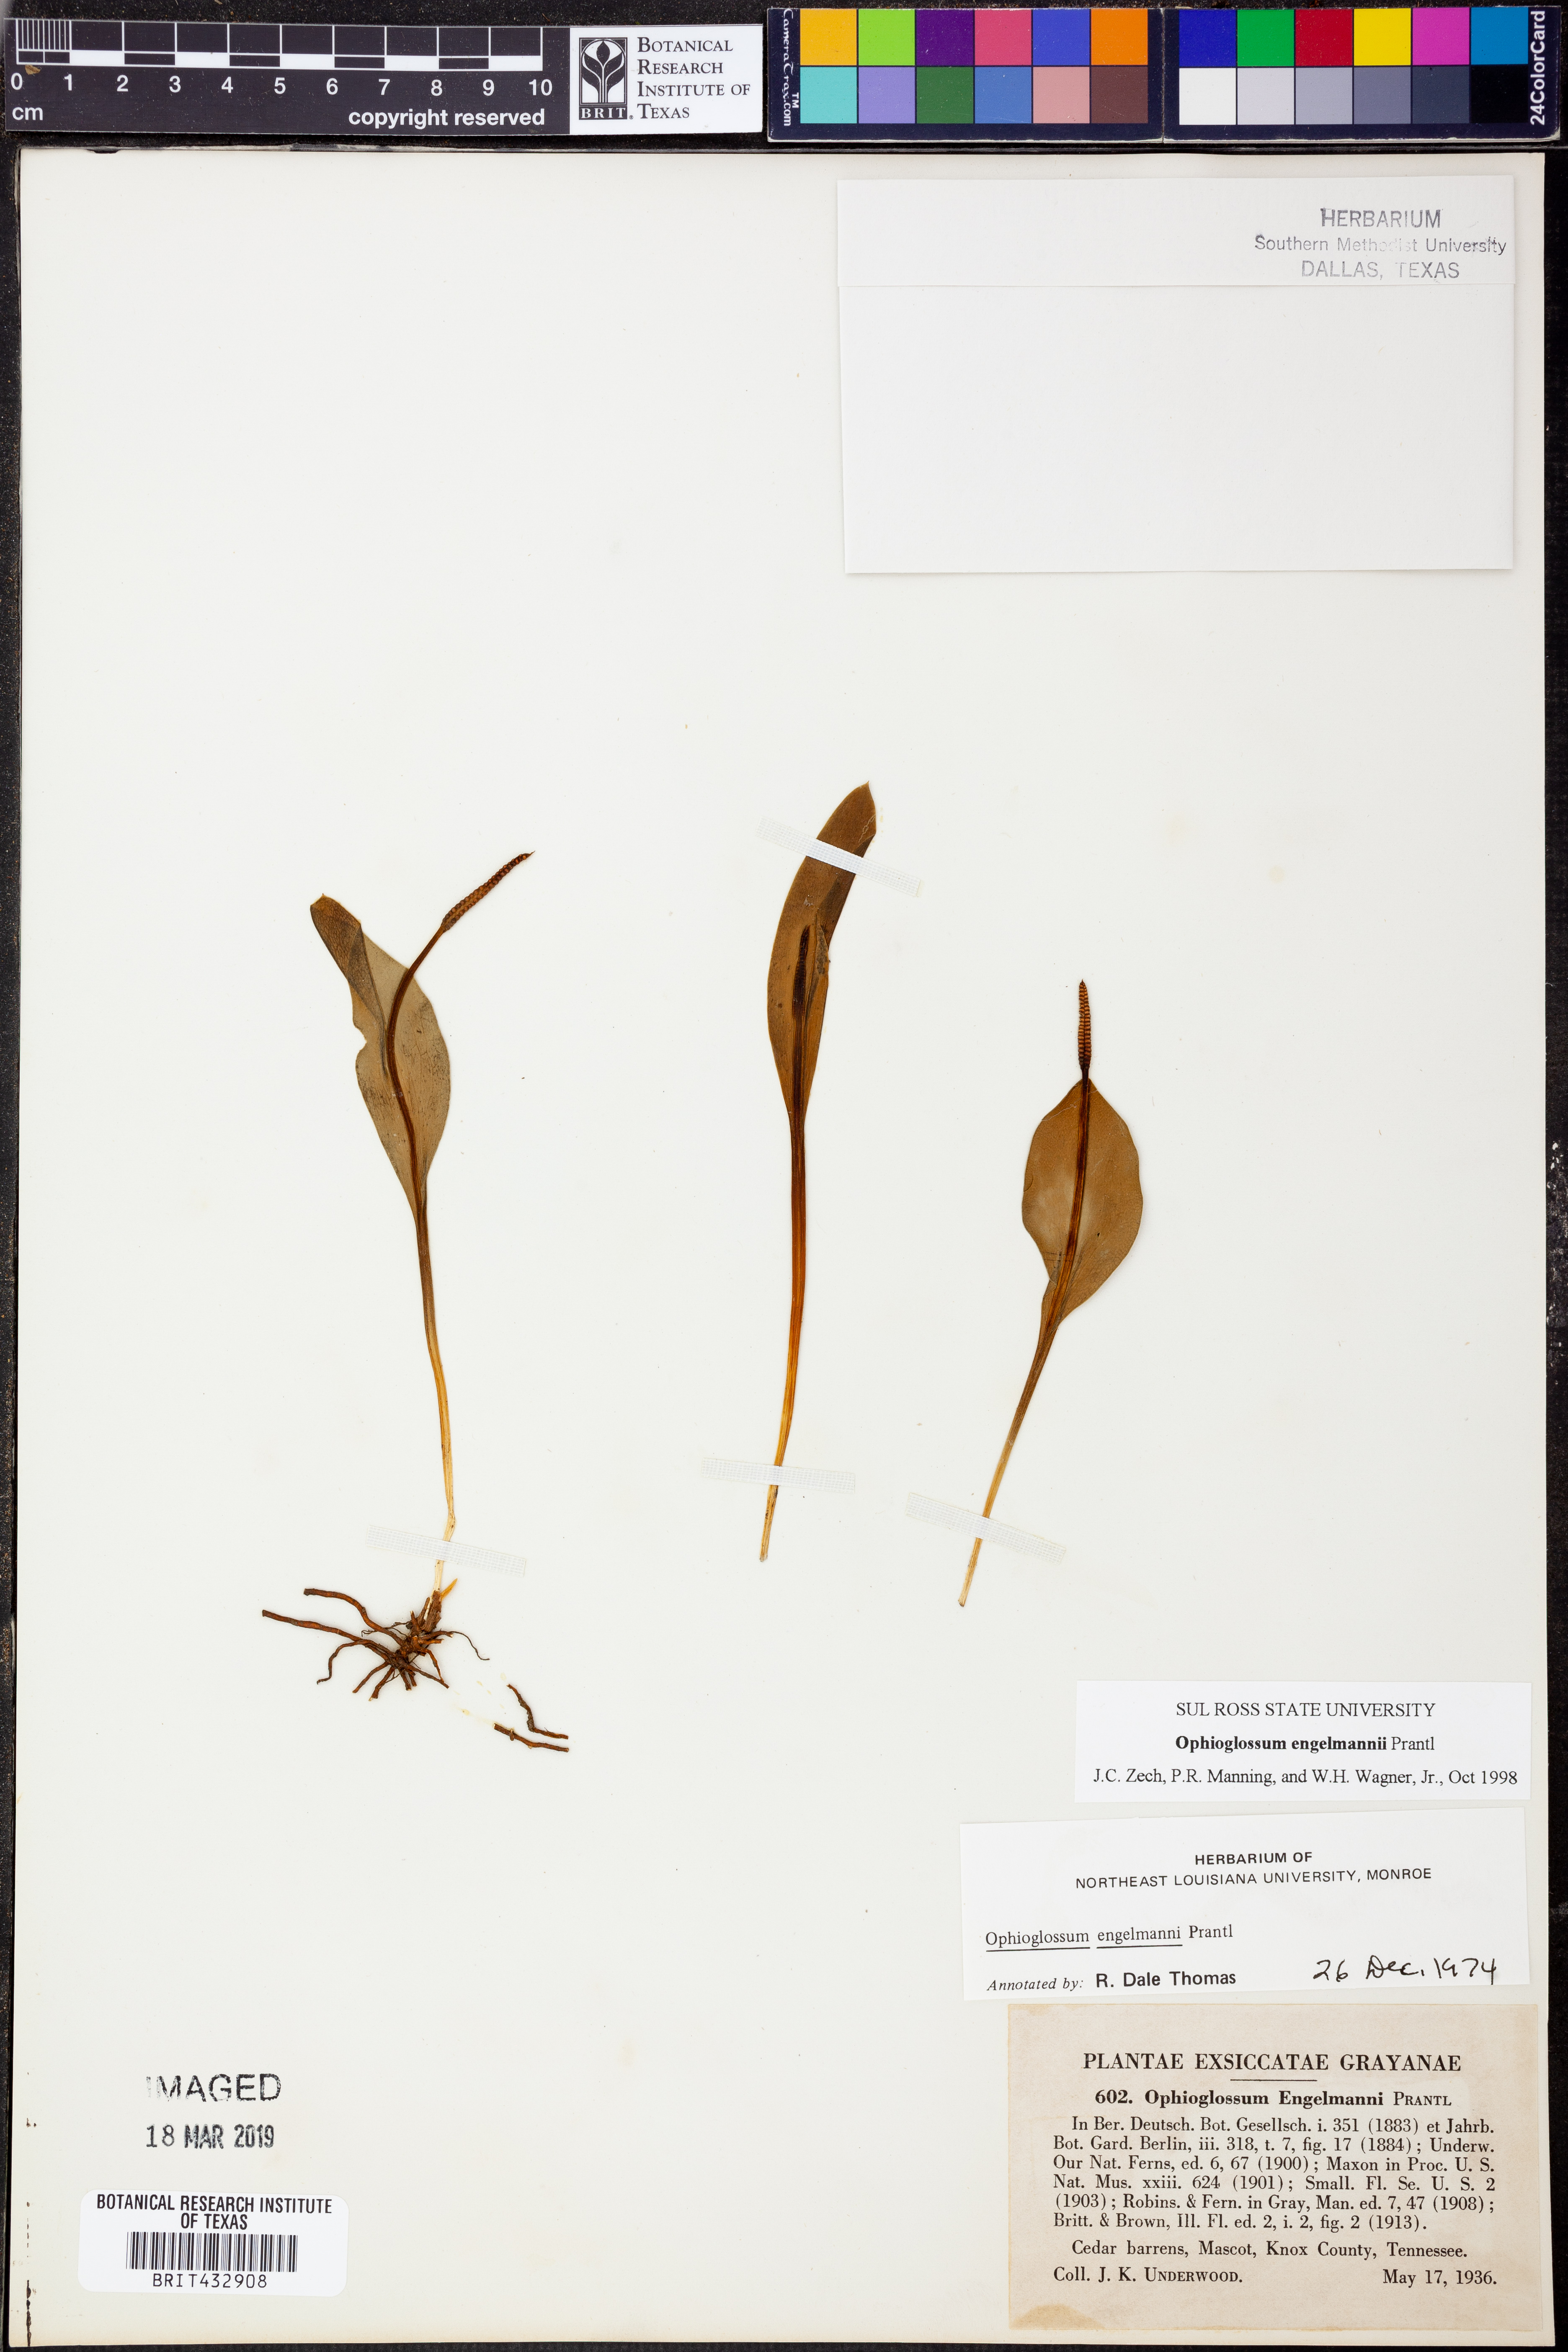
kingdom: Plantae
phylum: Tracheophyta
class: Polypodiopsida
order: Ophioglossales
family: Ophioglossaceae
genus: Ophioglossum
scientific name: Ophioglossum engelmannii
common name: Limestone adder's-tongue
